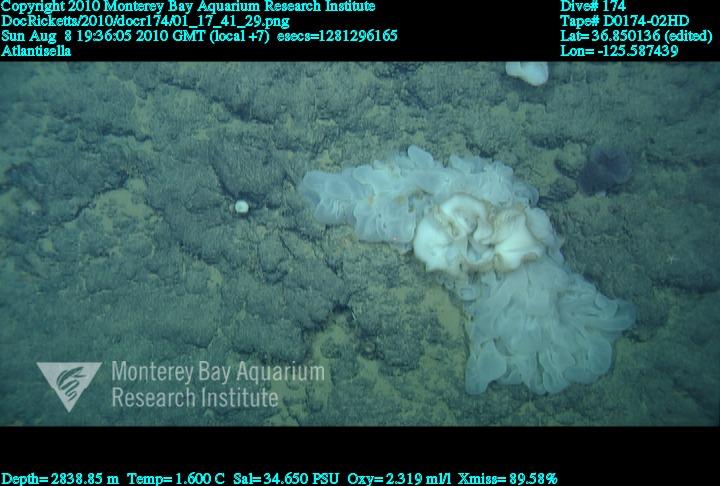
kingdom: Animalia
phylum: Porifera
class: Hexactinellida
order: Lyssacinosida
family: Euplectellidae
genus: Atlantisella
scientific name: Atlantisella
